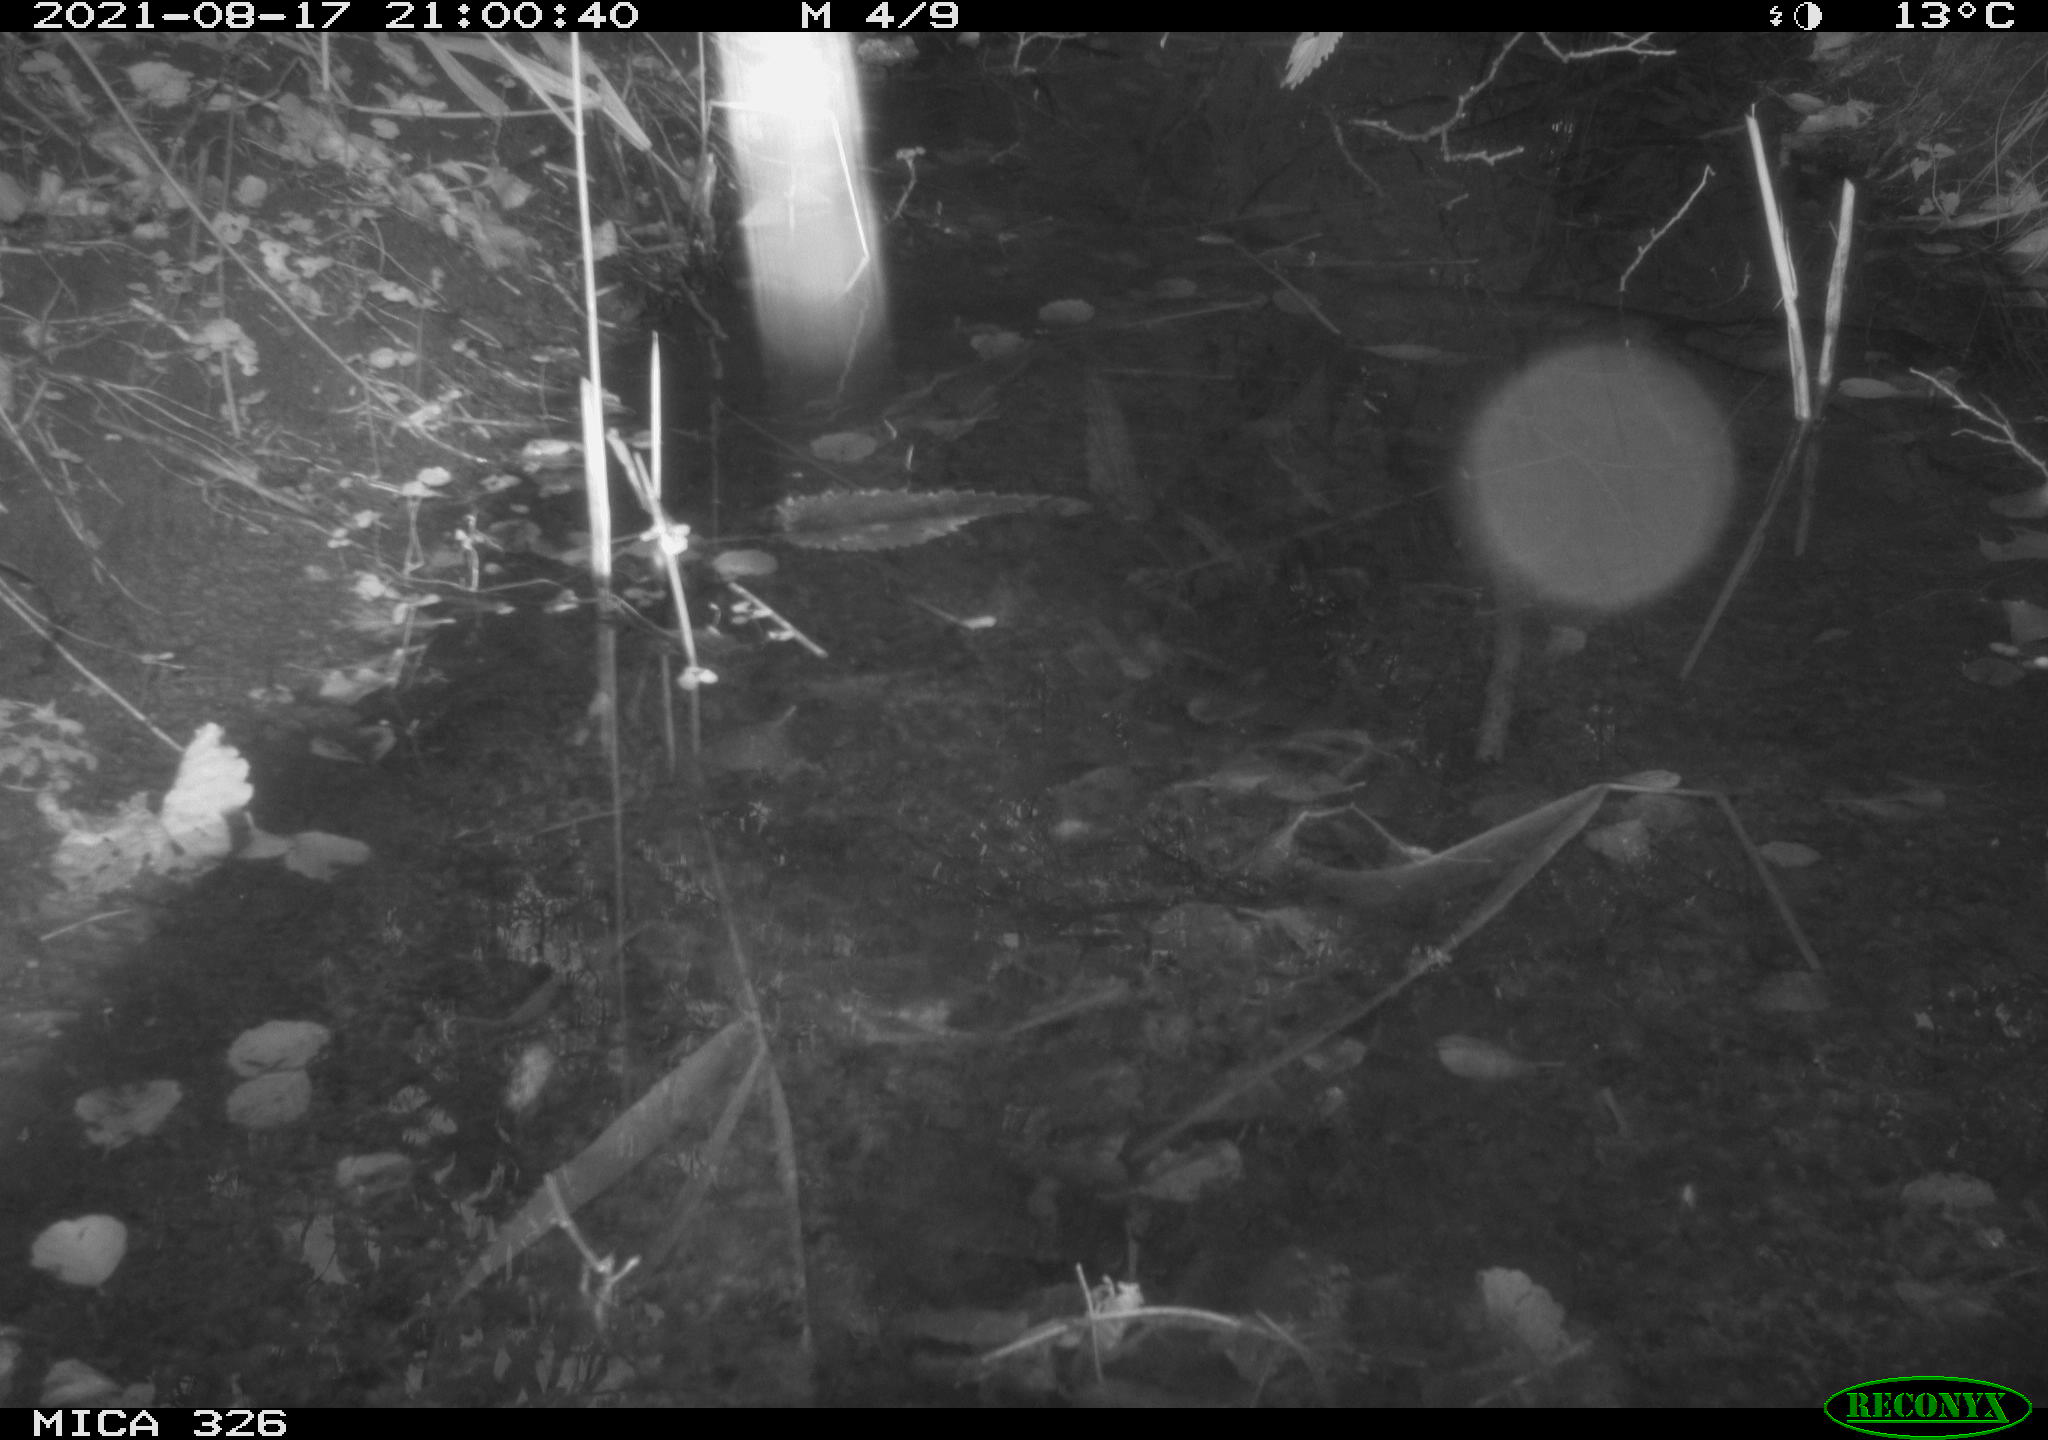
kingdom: Animalia
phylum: Chordata
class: Mammalia
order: Rodentia
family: Muridae
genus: Rattus
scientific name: Rattus norvegicus
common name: Brown rat
